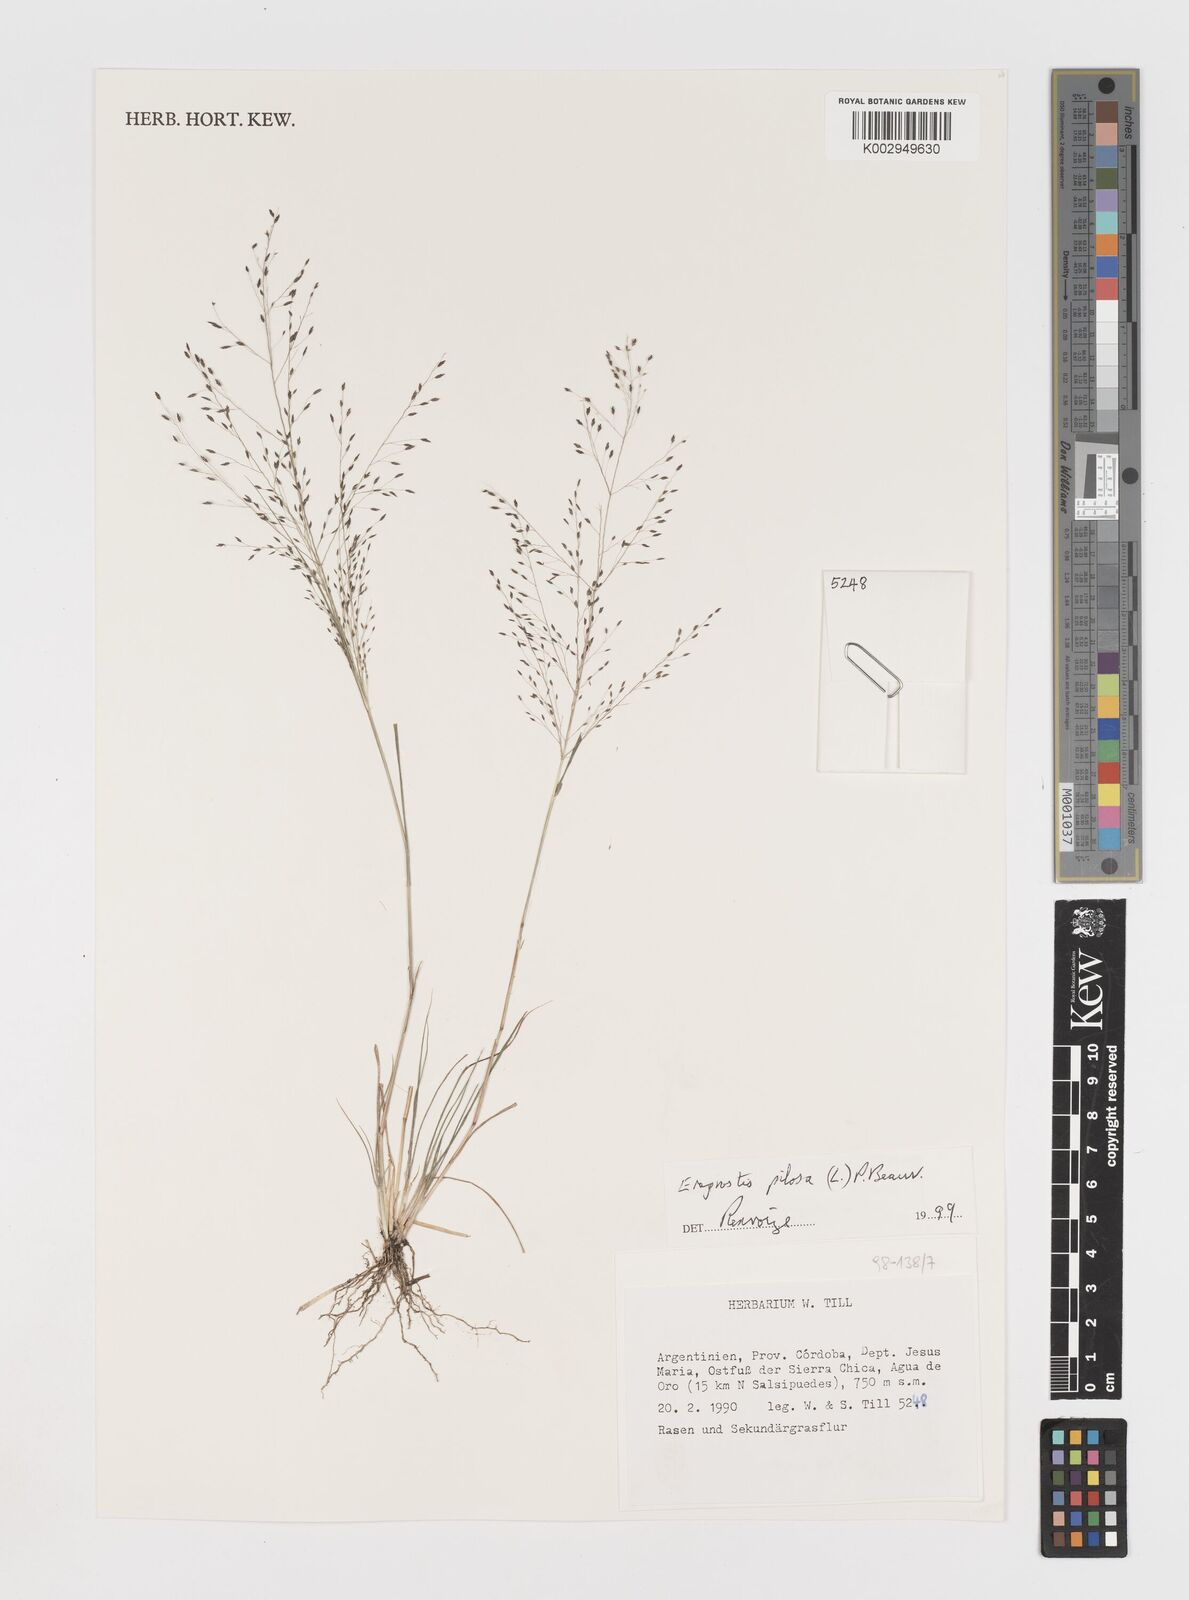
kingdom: Plantae
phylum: Tracheophyta
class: Liliopsida
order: Poales
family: Poaceae
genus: Eragrostis
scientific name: Eragrostis pilosa
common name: Indian lovegrass
